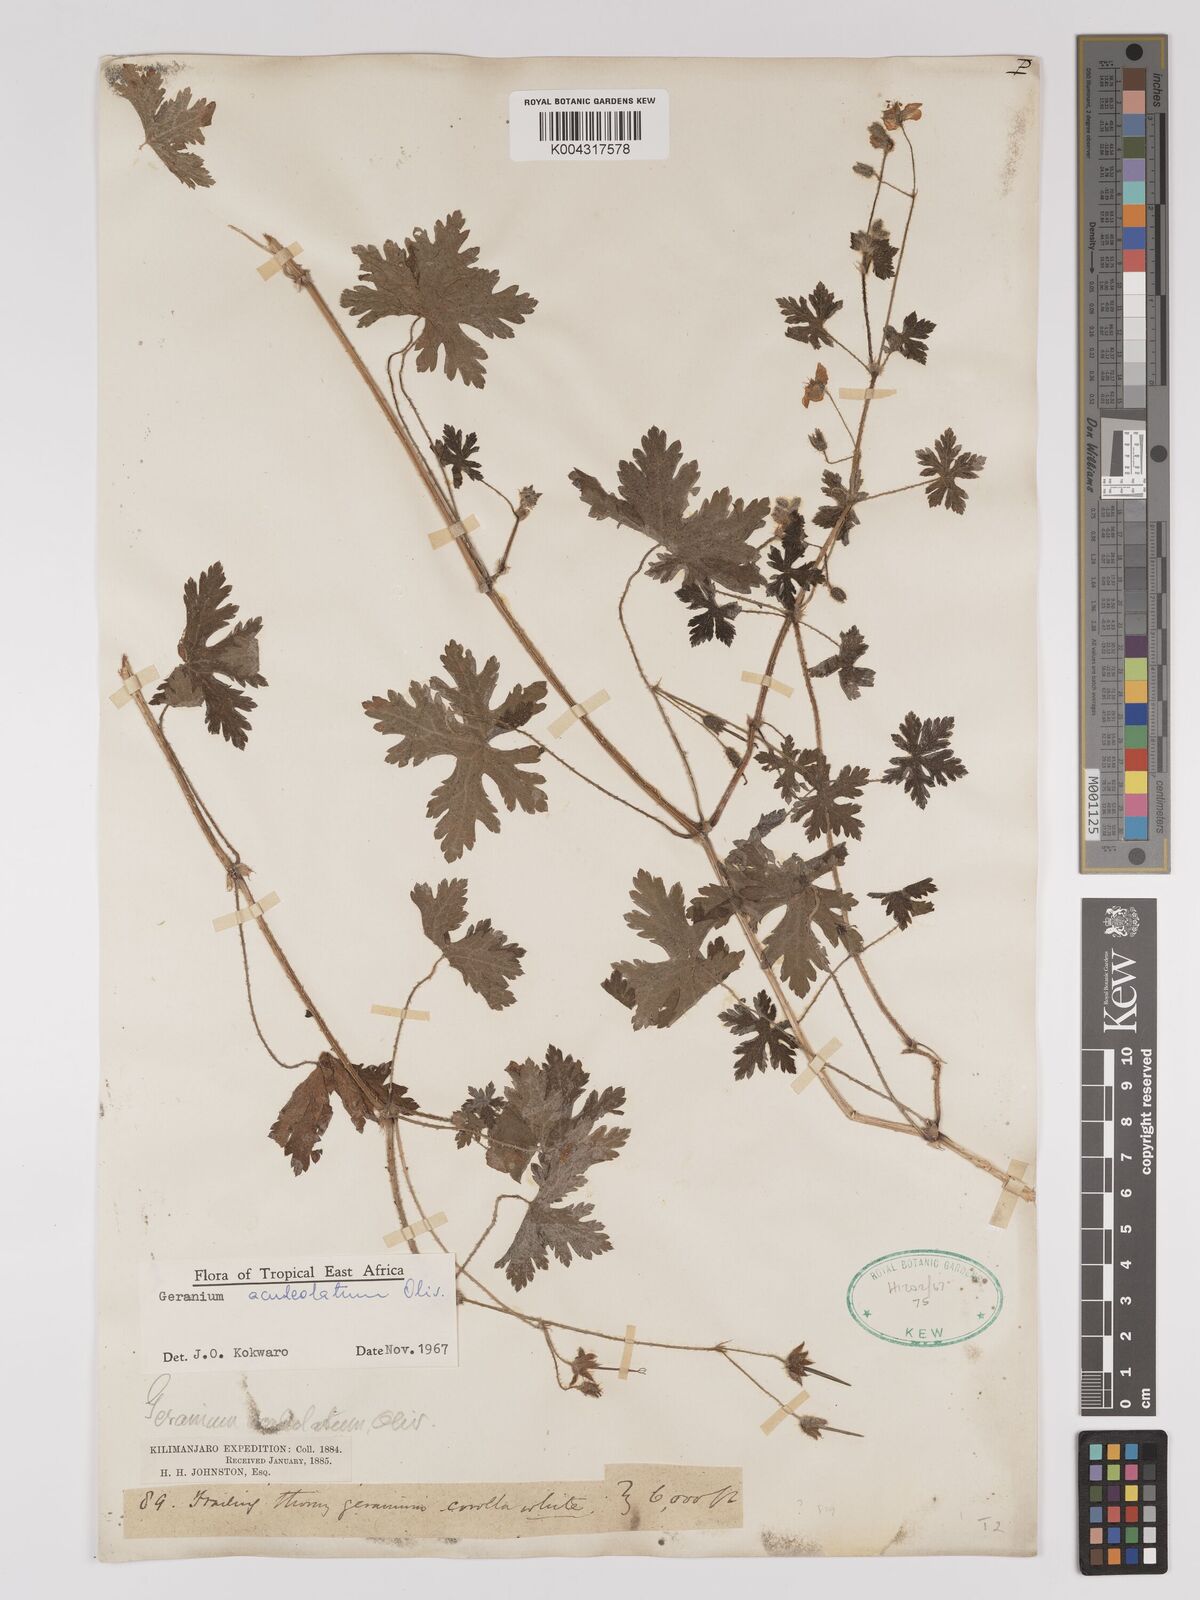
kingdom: Plantae
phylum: Tracheophyta
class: Magnoliopsida
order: Geraniales
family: Geraniaceae
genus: Geranium
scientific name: Geranium aculeolatum
